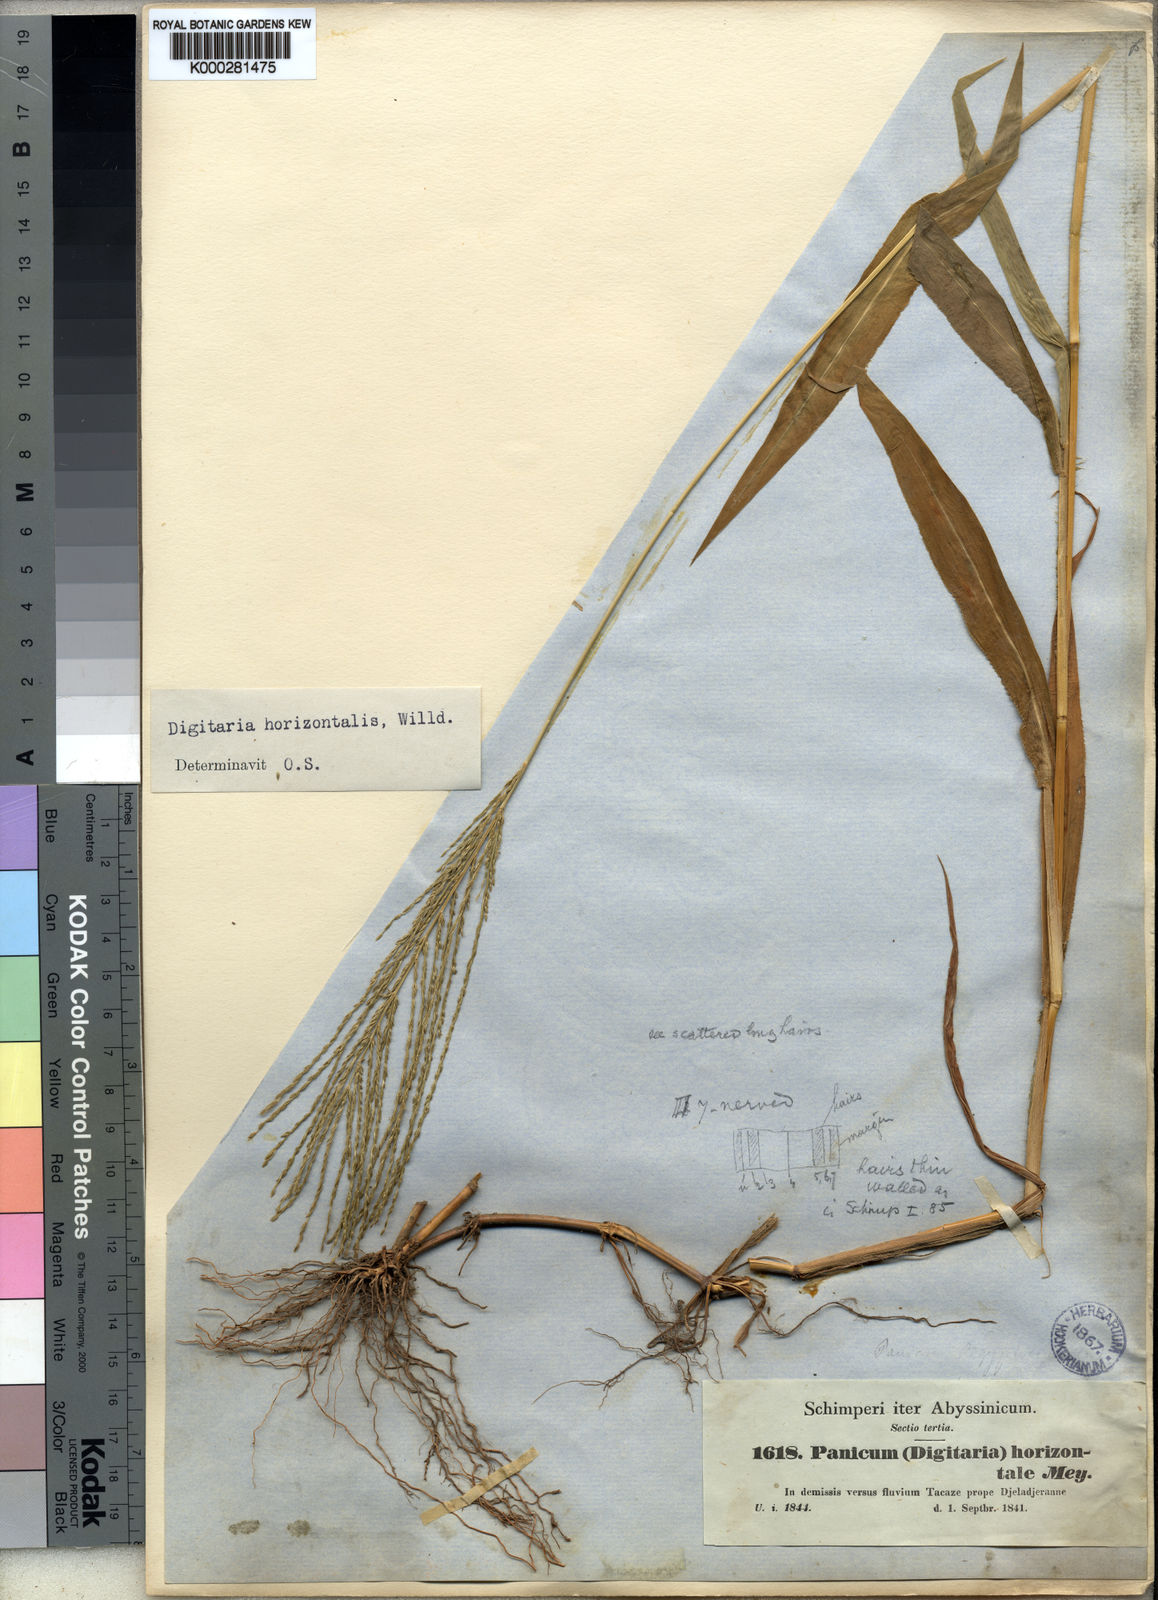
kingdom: Plantae
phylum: Tracheophyta
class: Liliopsida
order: Poales
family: Poaceae
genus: Digitaria
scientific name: Digitaria horizontalis
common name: Jamaican crabgrass
